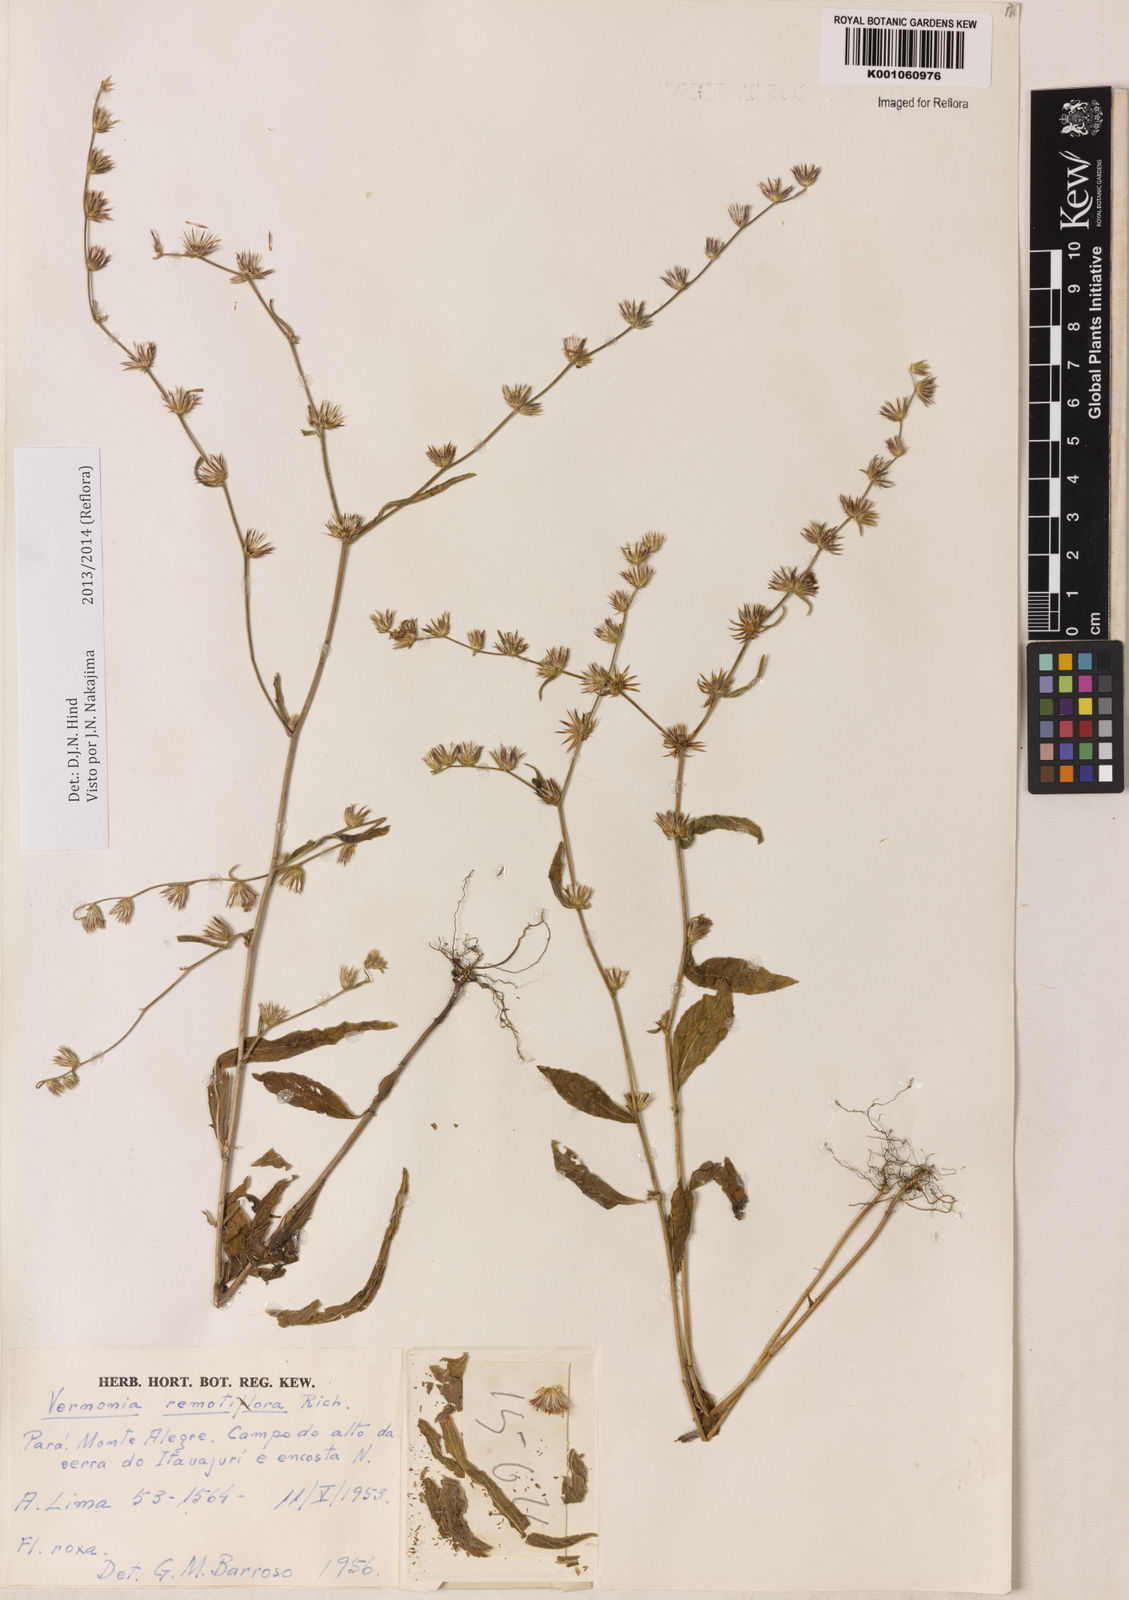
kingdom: Plantae
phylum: Tracheophyta
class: Magnoliopsida
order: Asterales
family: Asteraceae
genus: Lepidaploa
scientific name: Lepidaploa remotiflora
